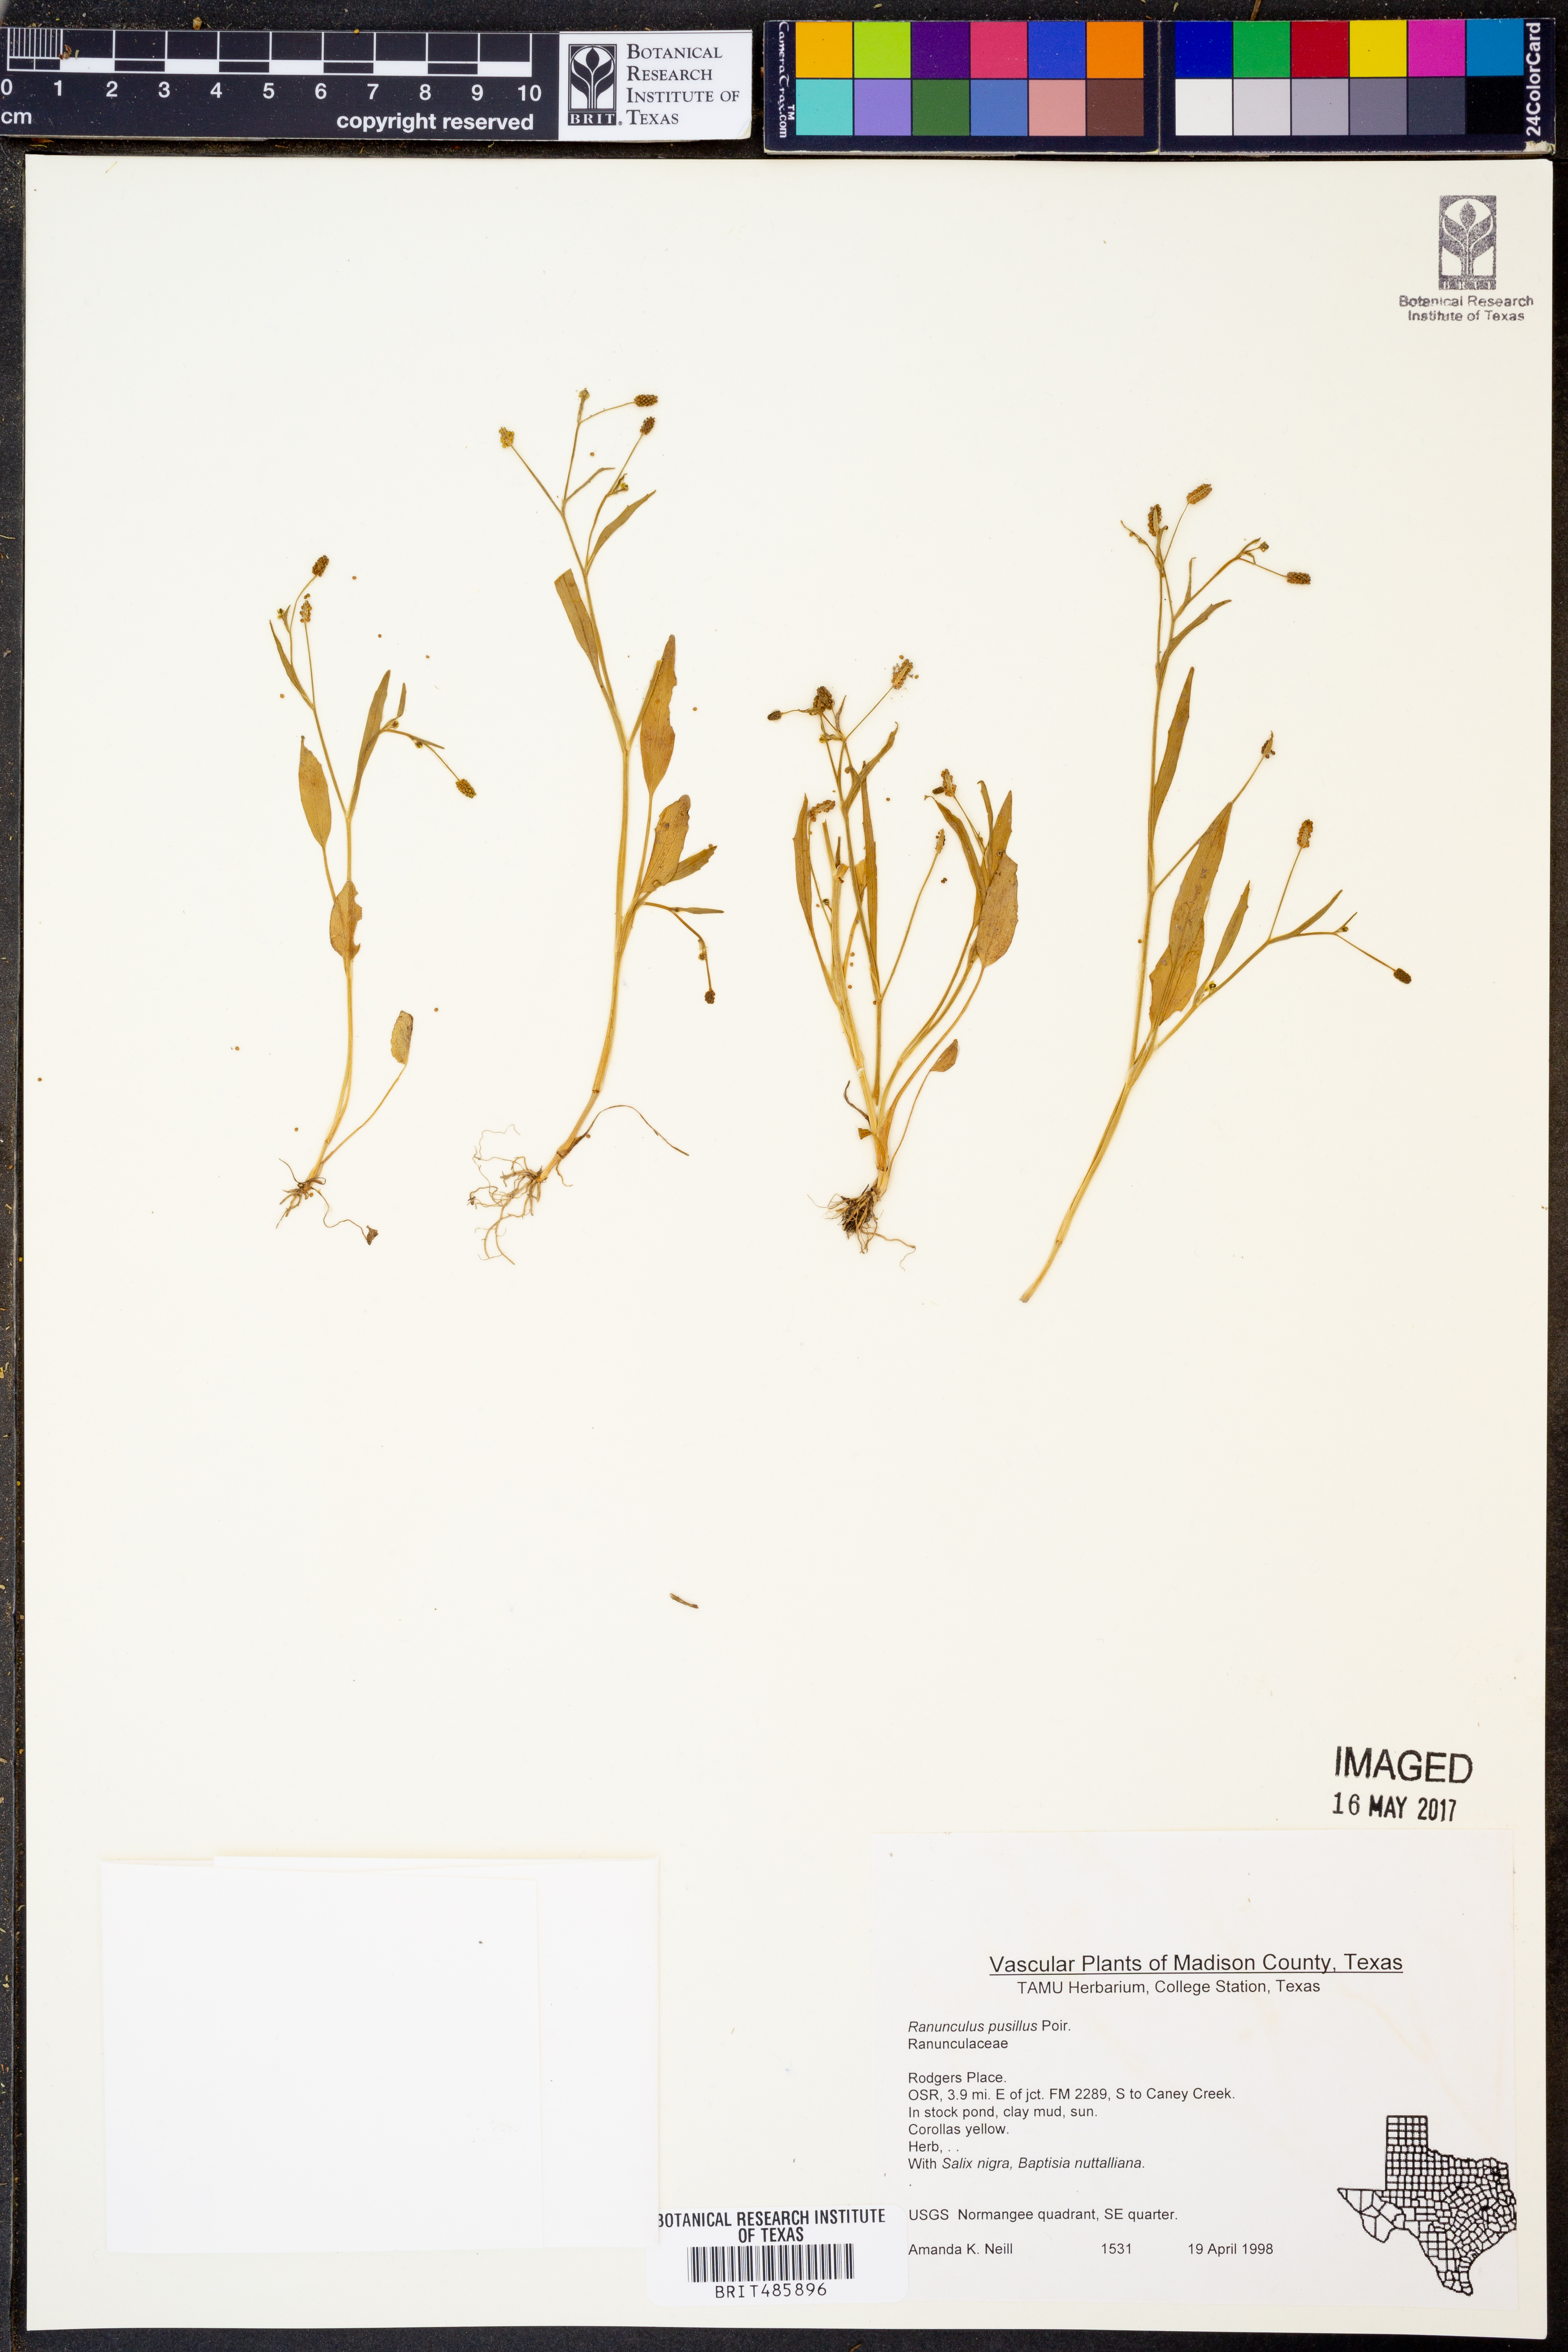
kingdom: Plantae
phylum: Tracheophyta
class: Magnoliopsida
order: Ranunculales
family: Ranunculaceae
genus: Ranunculus
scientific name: Ranunculus pusillus
